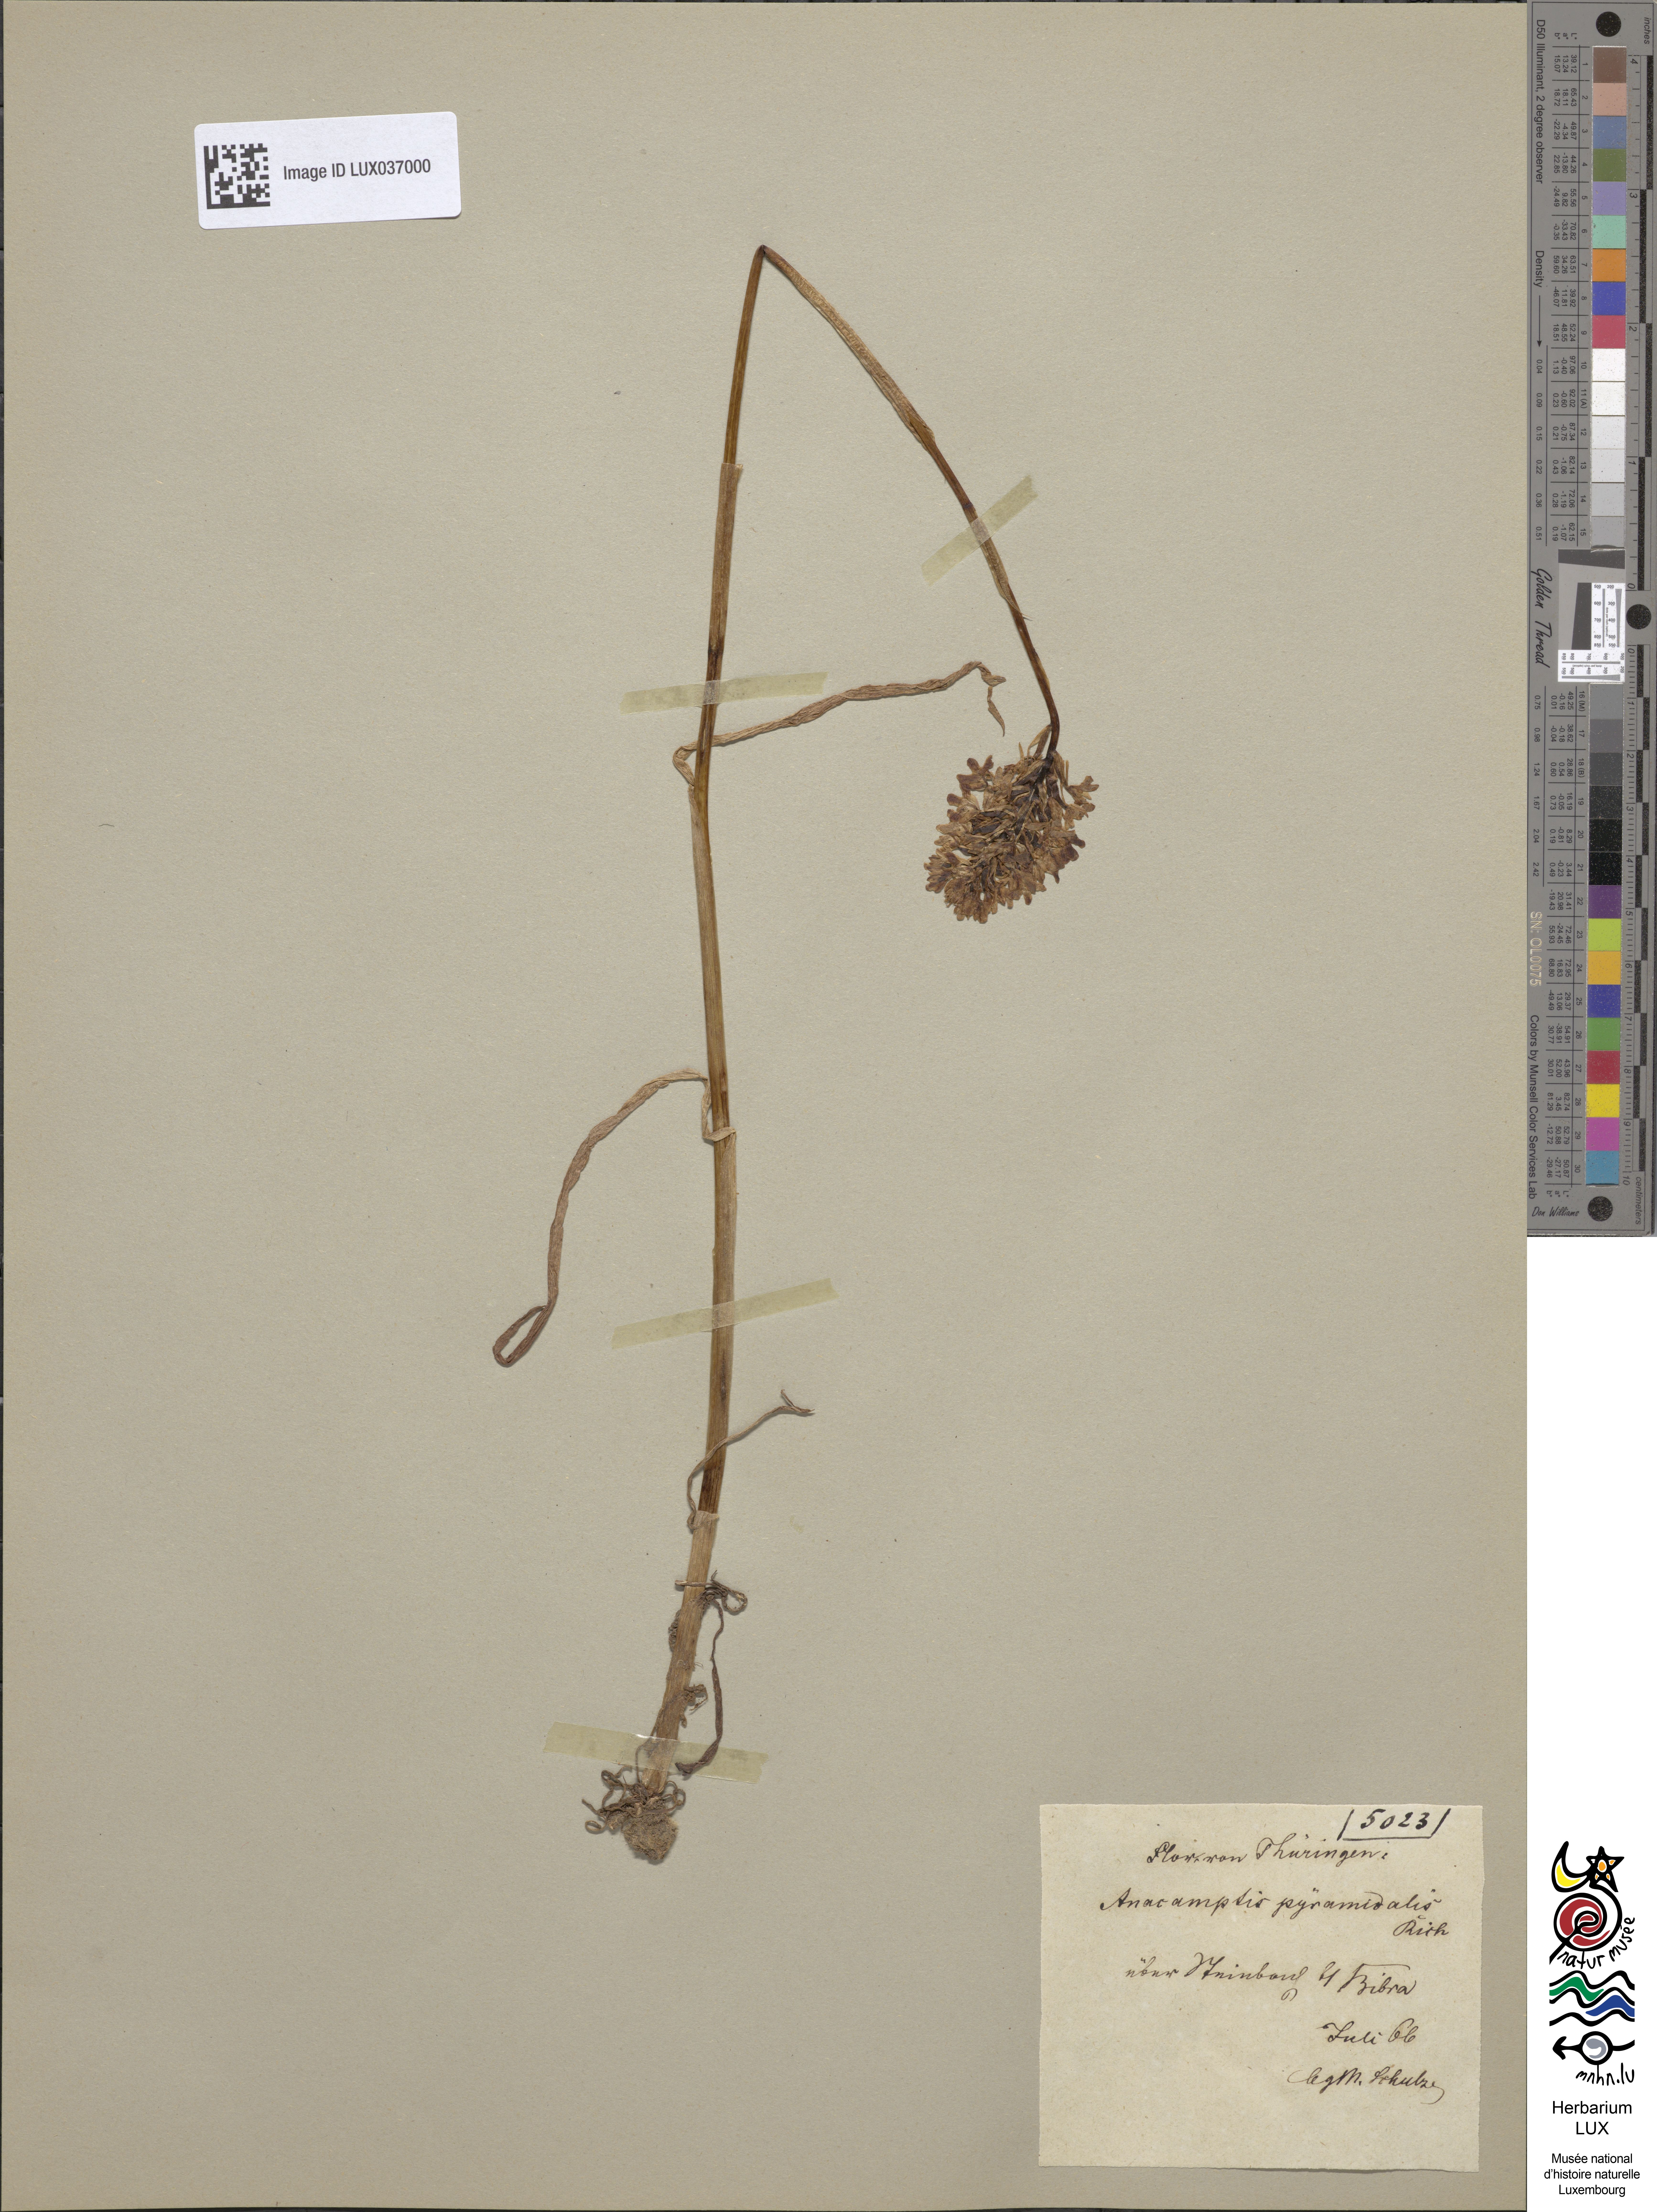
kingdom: Plantae
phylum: Tracheophyta
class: Liliopsida
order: Asparagales
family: Orchidaceae
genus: Anacamptis
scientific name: Anacamptis pyramidalis
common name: Pyramidal orchid
